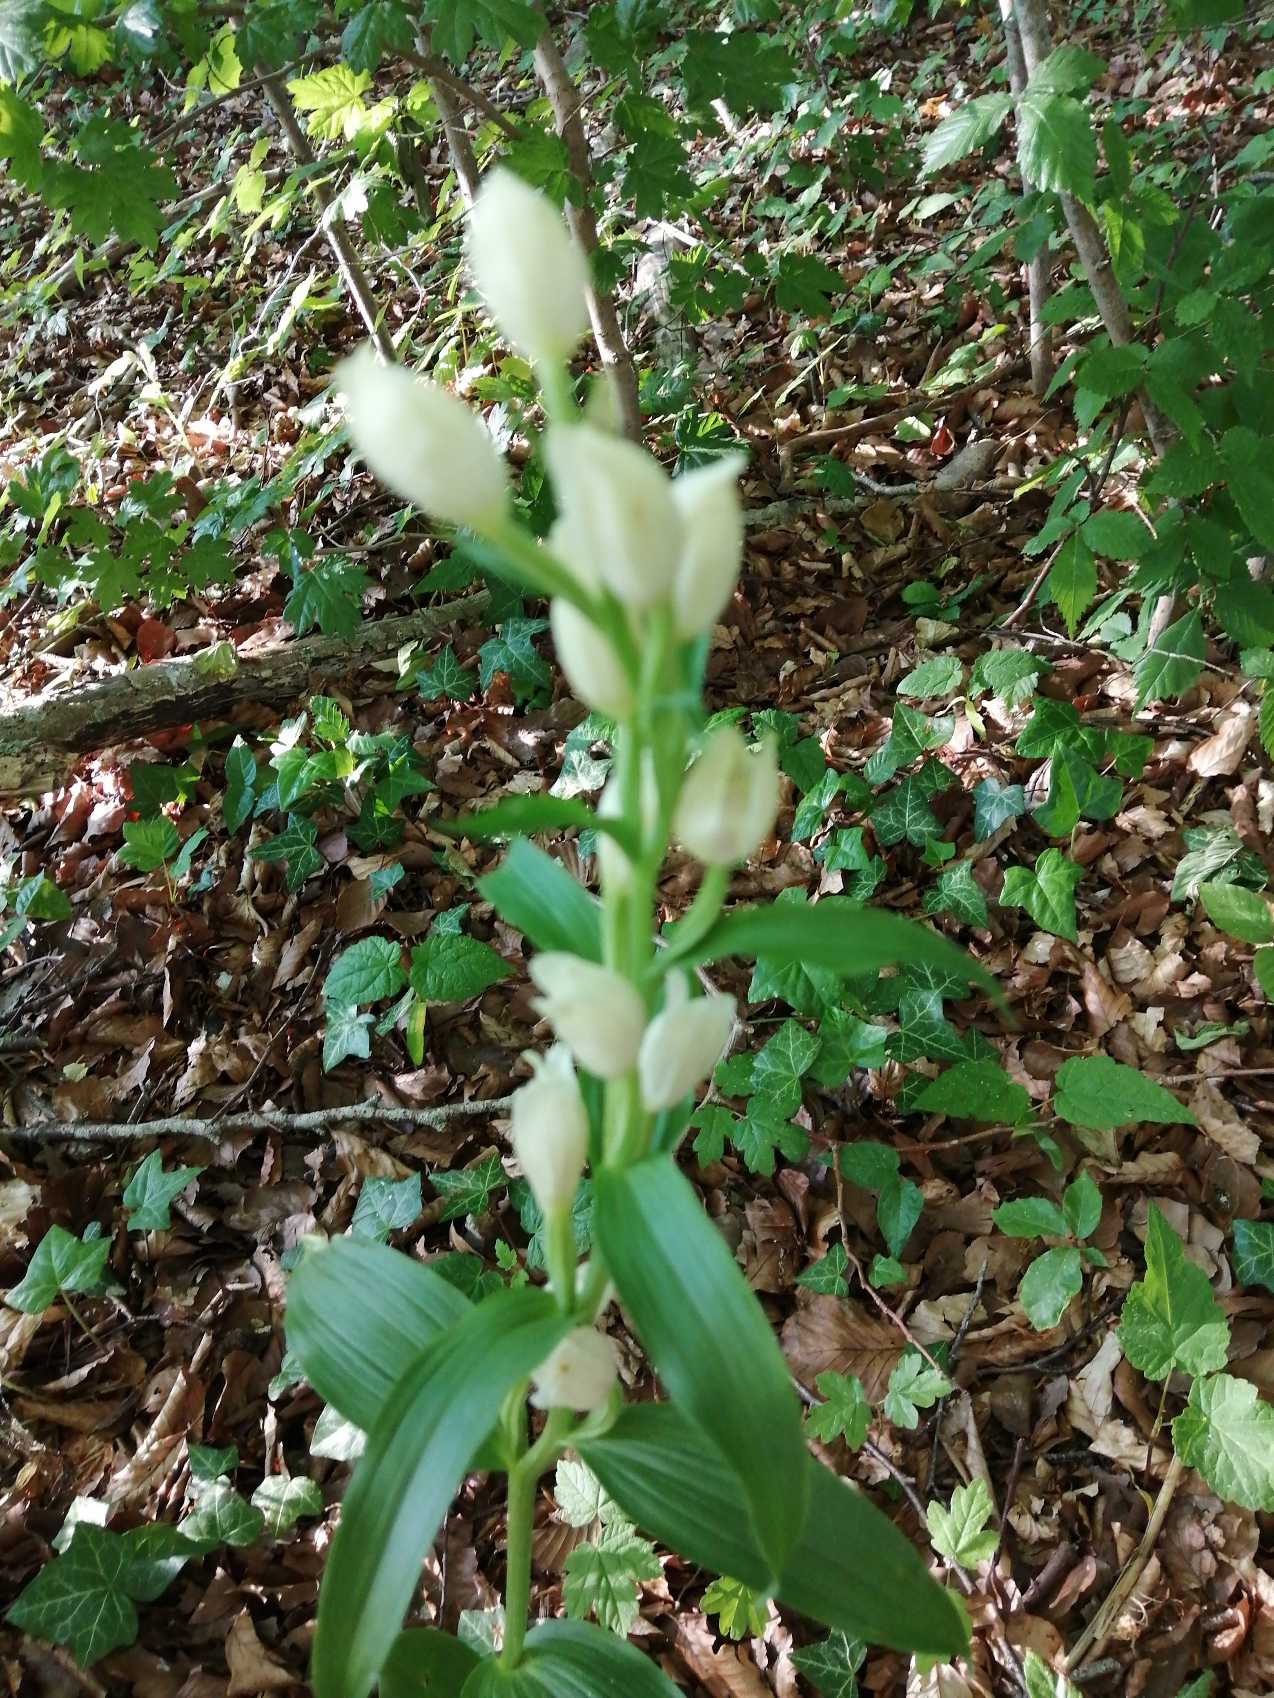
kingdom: Plantae
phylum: Tracheophyta
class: Liliopsida
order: Asparagales
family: Orchidaceae
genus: Cephalanthera
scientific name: Cephalanthera damasonium
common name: Hvidgul skovlilje
